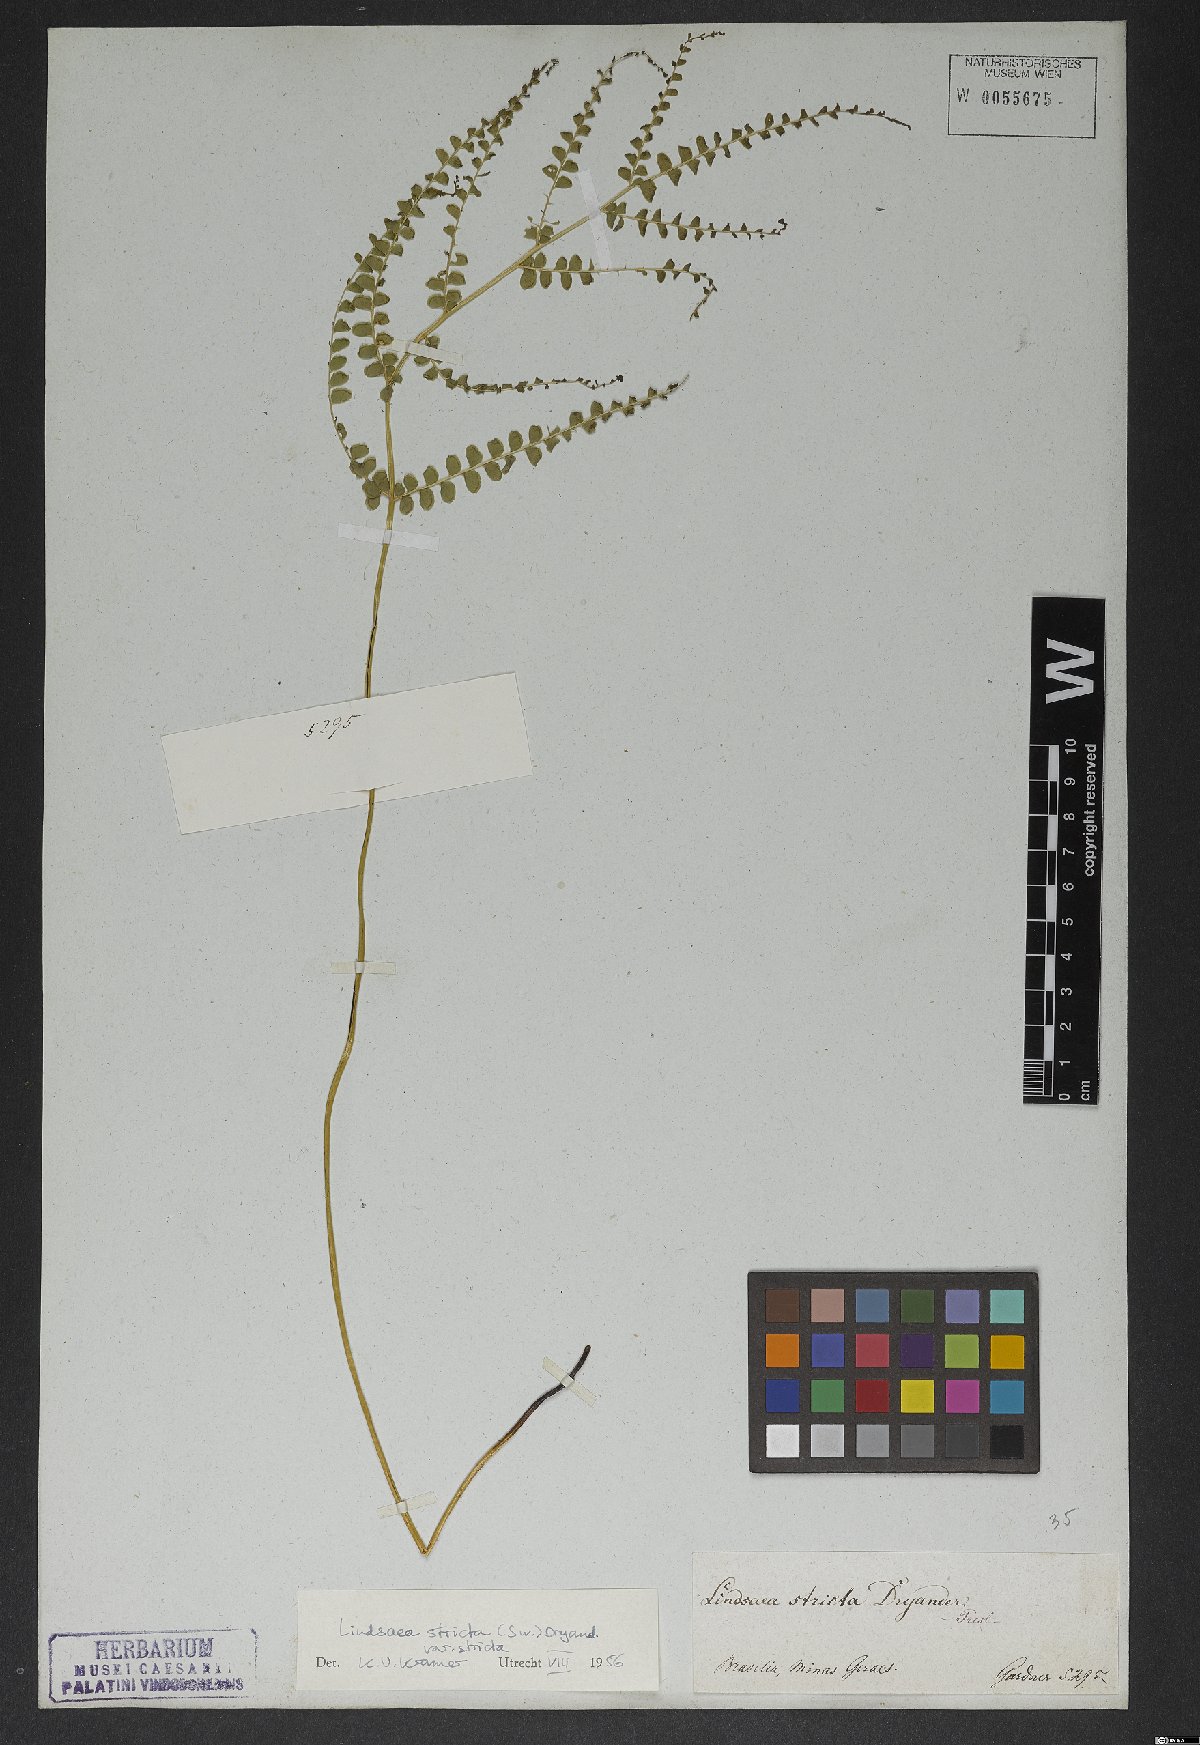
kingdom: Plantae
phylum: Tracheophyta
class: Polypodiopsida
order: Polypodiales
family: Lindsaeaceae
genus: Lindsaea
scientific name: Lindsaea stricta
